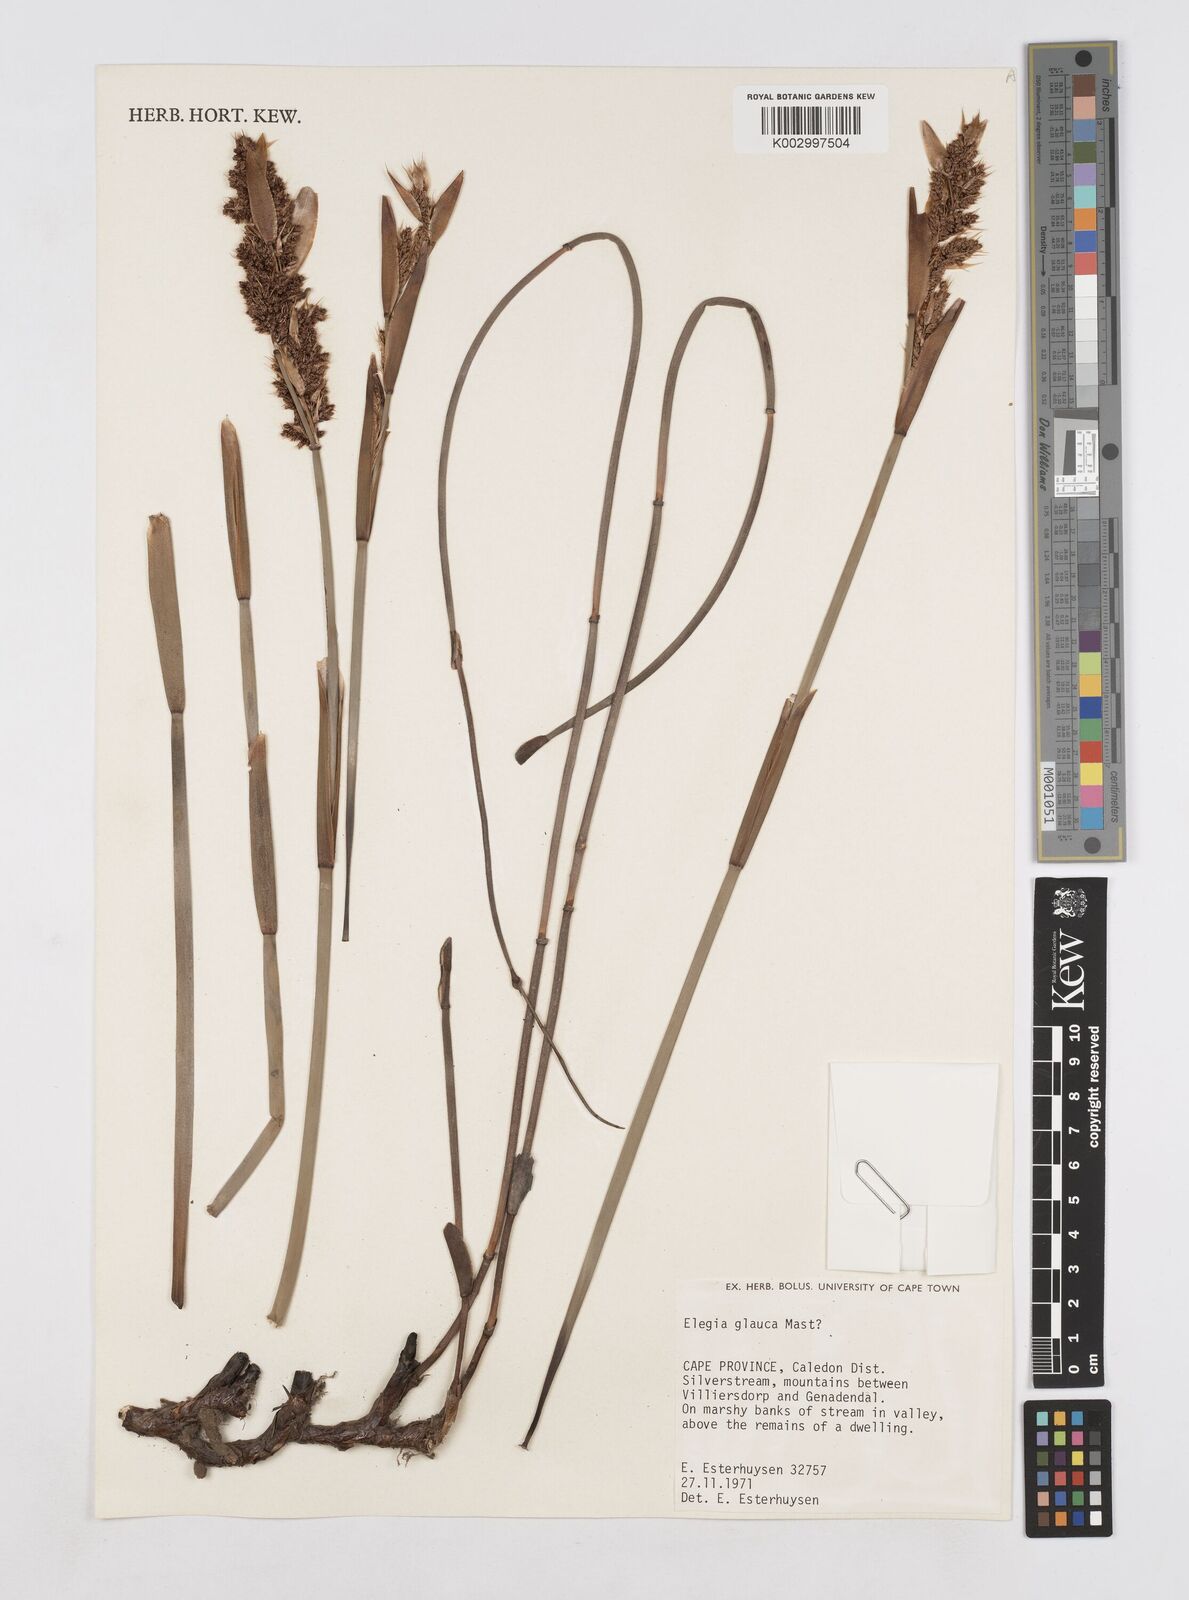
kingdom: Plantae
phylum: Tracheophyta
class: Liliopsida
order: Poales
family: Restionaceae
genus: Elegia
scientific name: Elegia asperiflora
